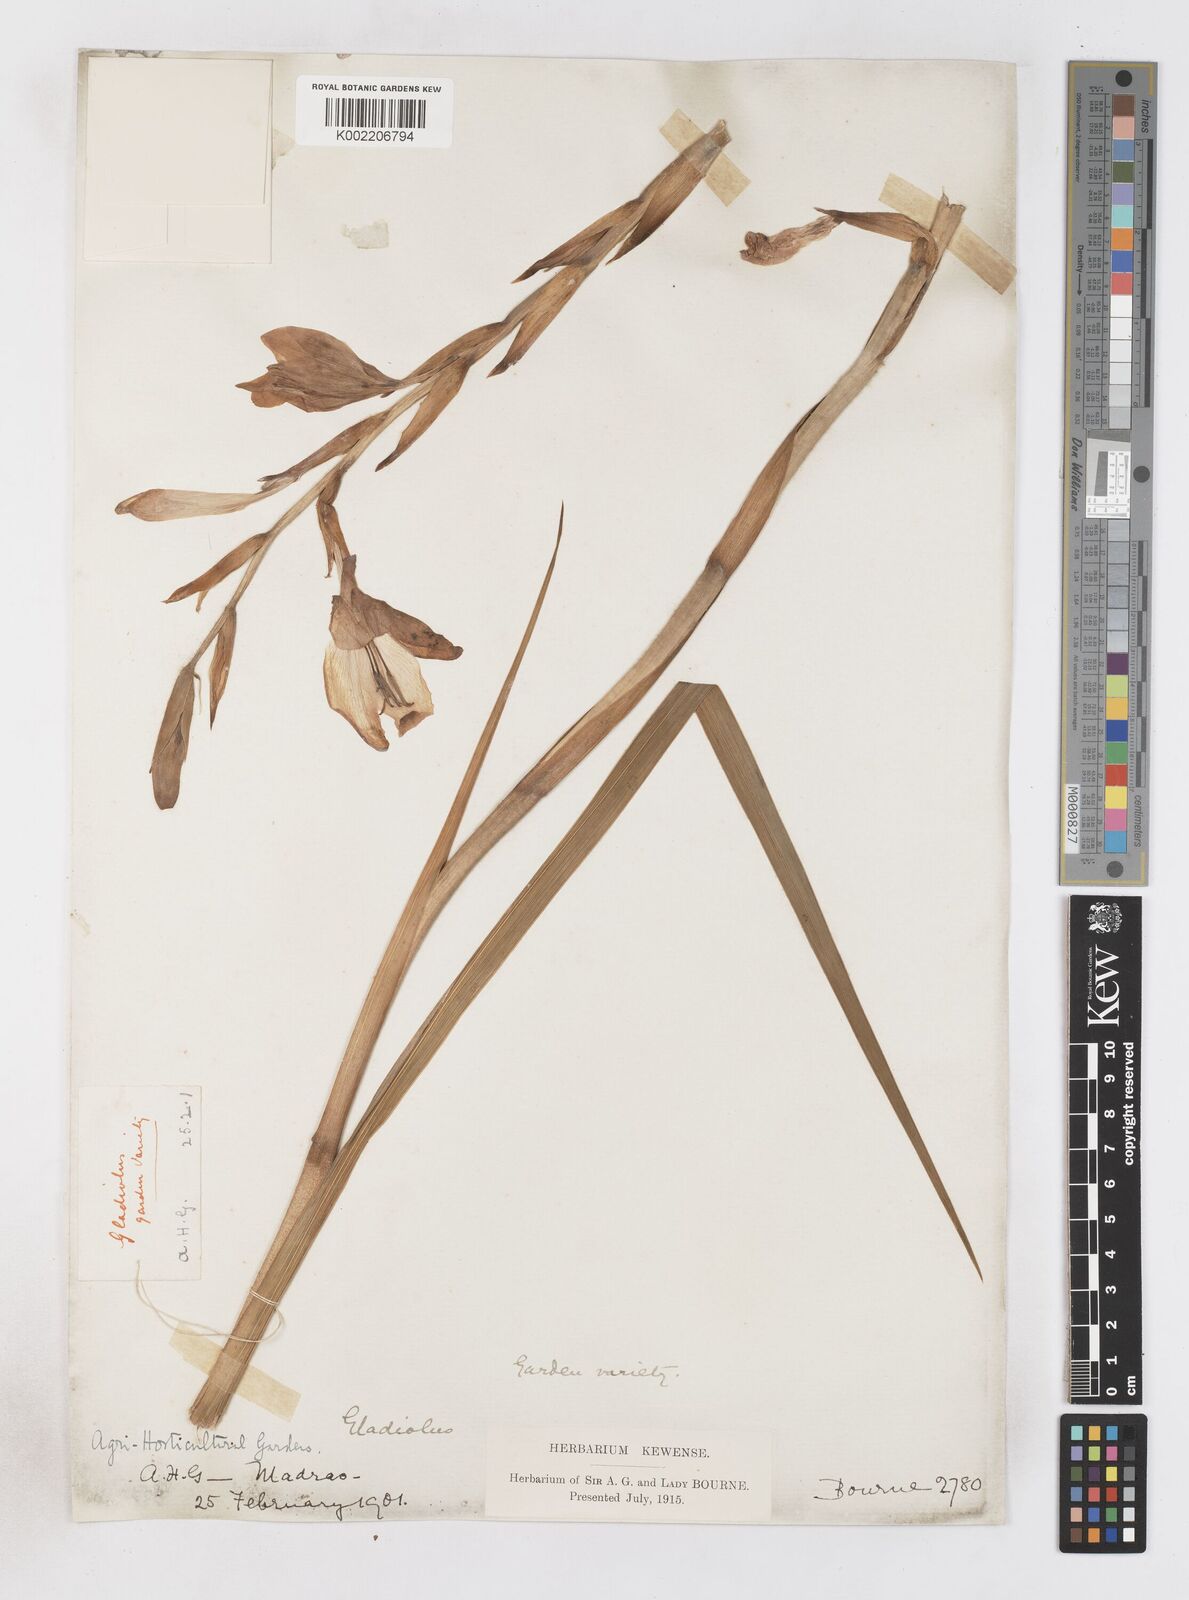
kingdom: Plantae
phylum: Tracheophyta
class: Liliopsida
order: Asparagales
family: Iridaceae
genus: Gladiolus
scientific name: Gladiolus
